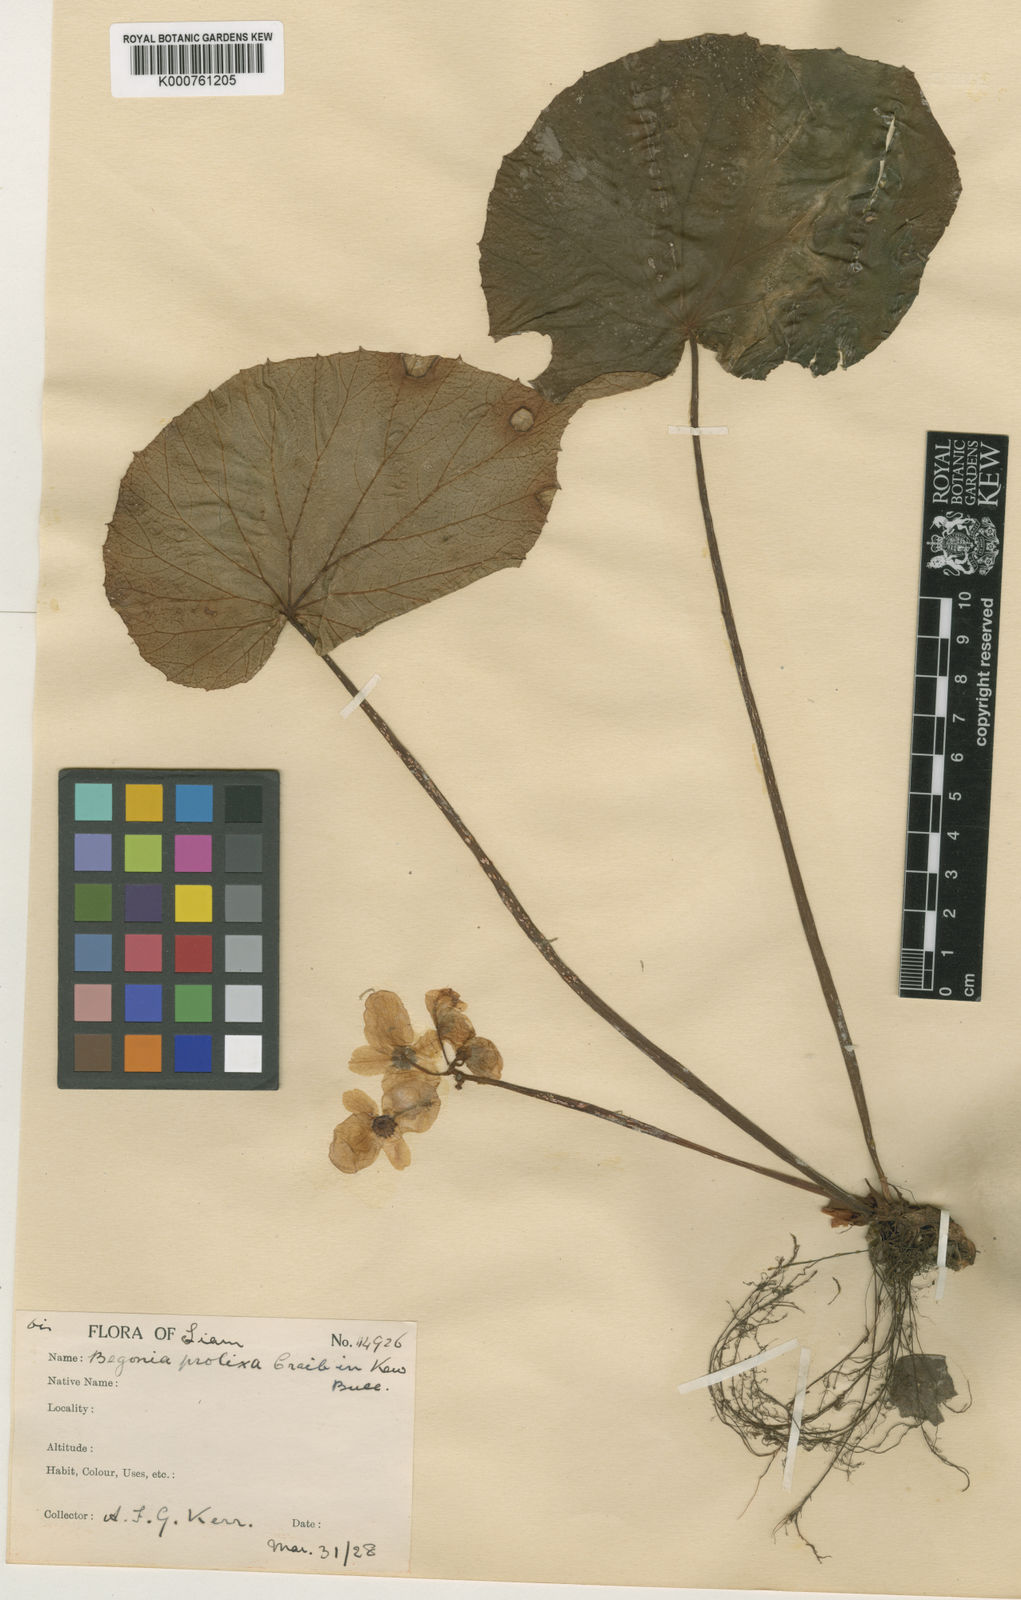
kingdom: Plantae
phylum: Tracheophyta
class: Magnoliopsida
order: Cucurbitales
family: Begoniaceae
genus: Begonia
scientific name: Begonia venusta
